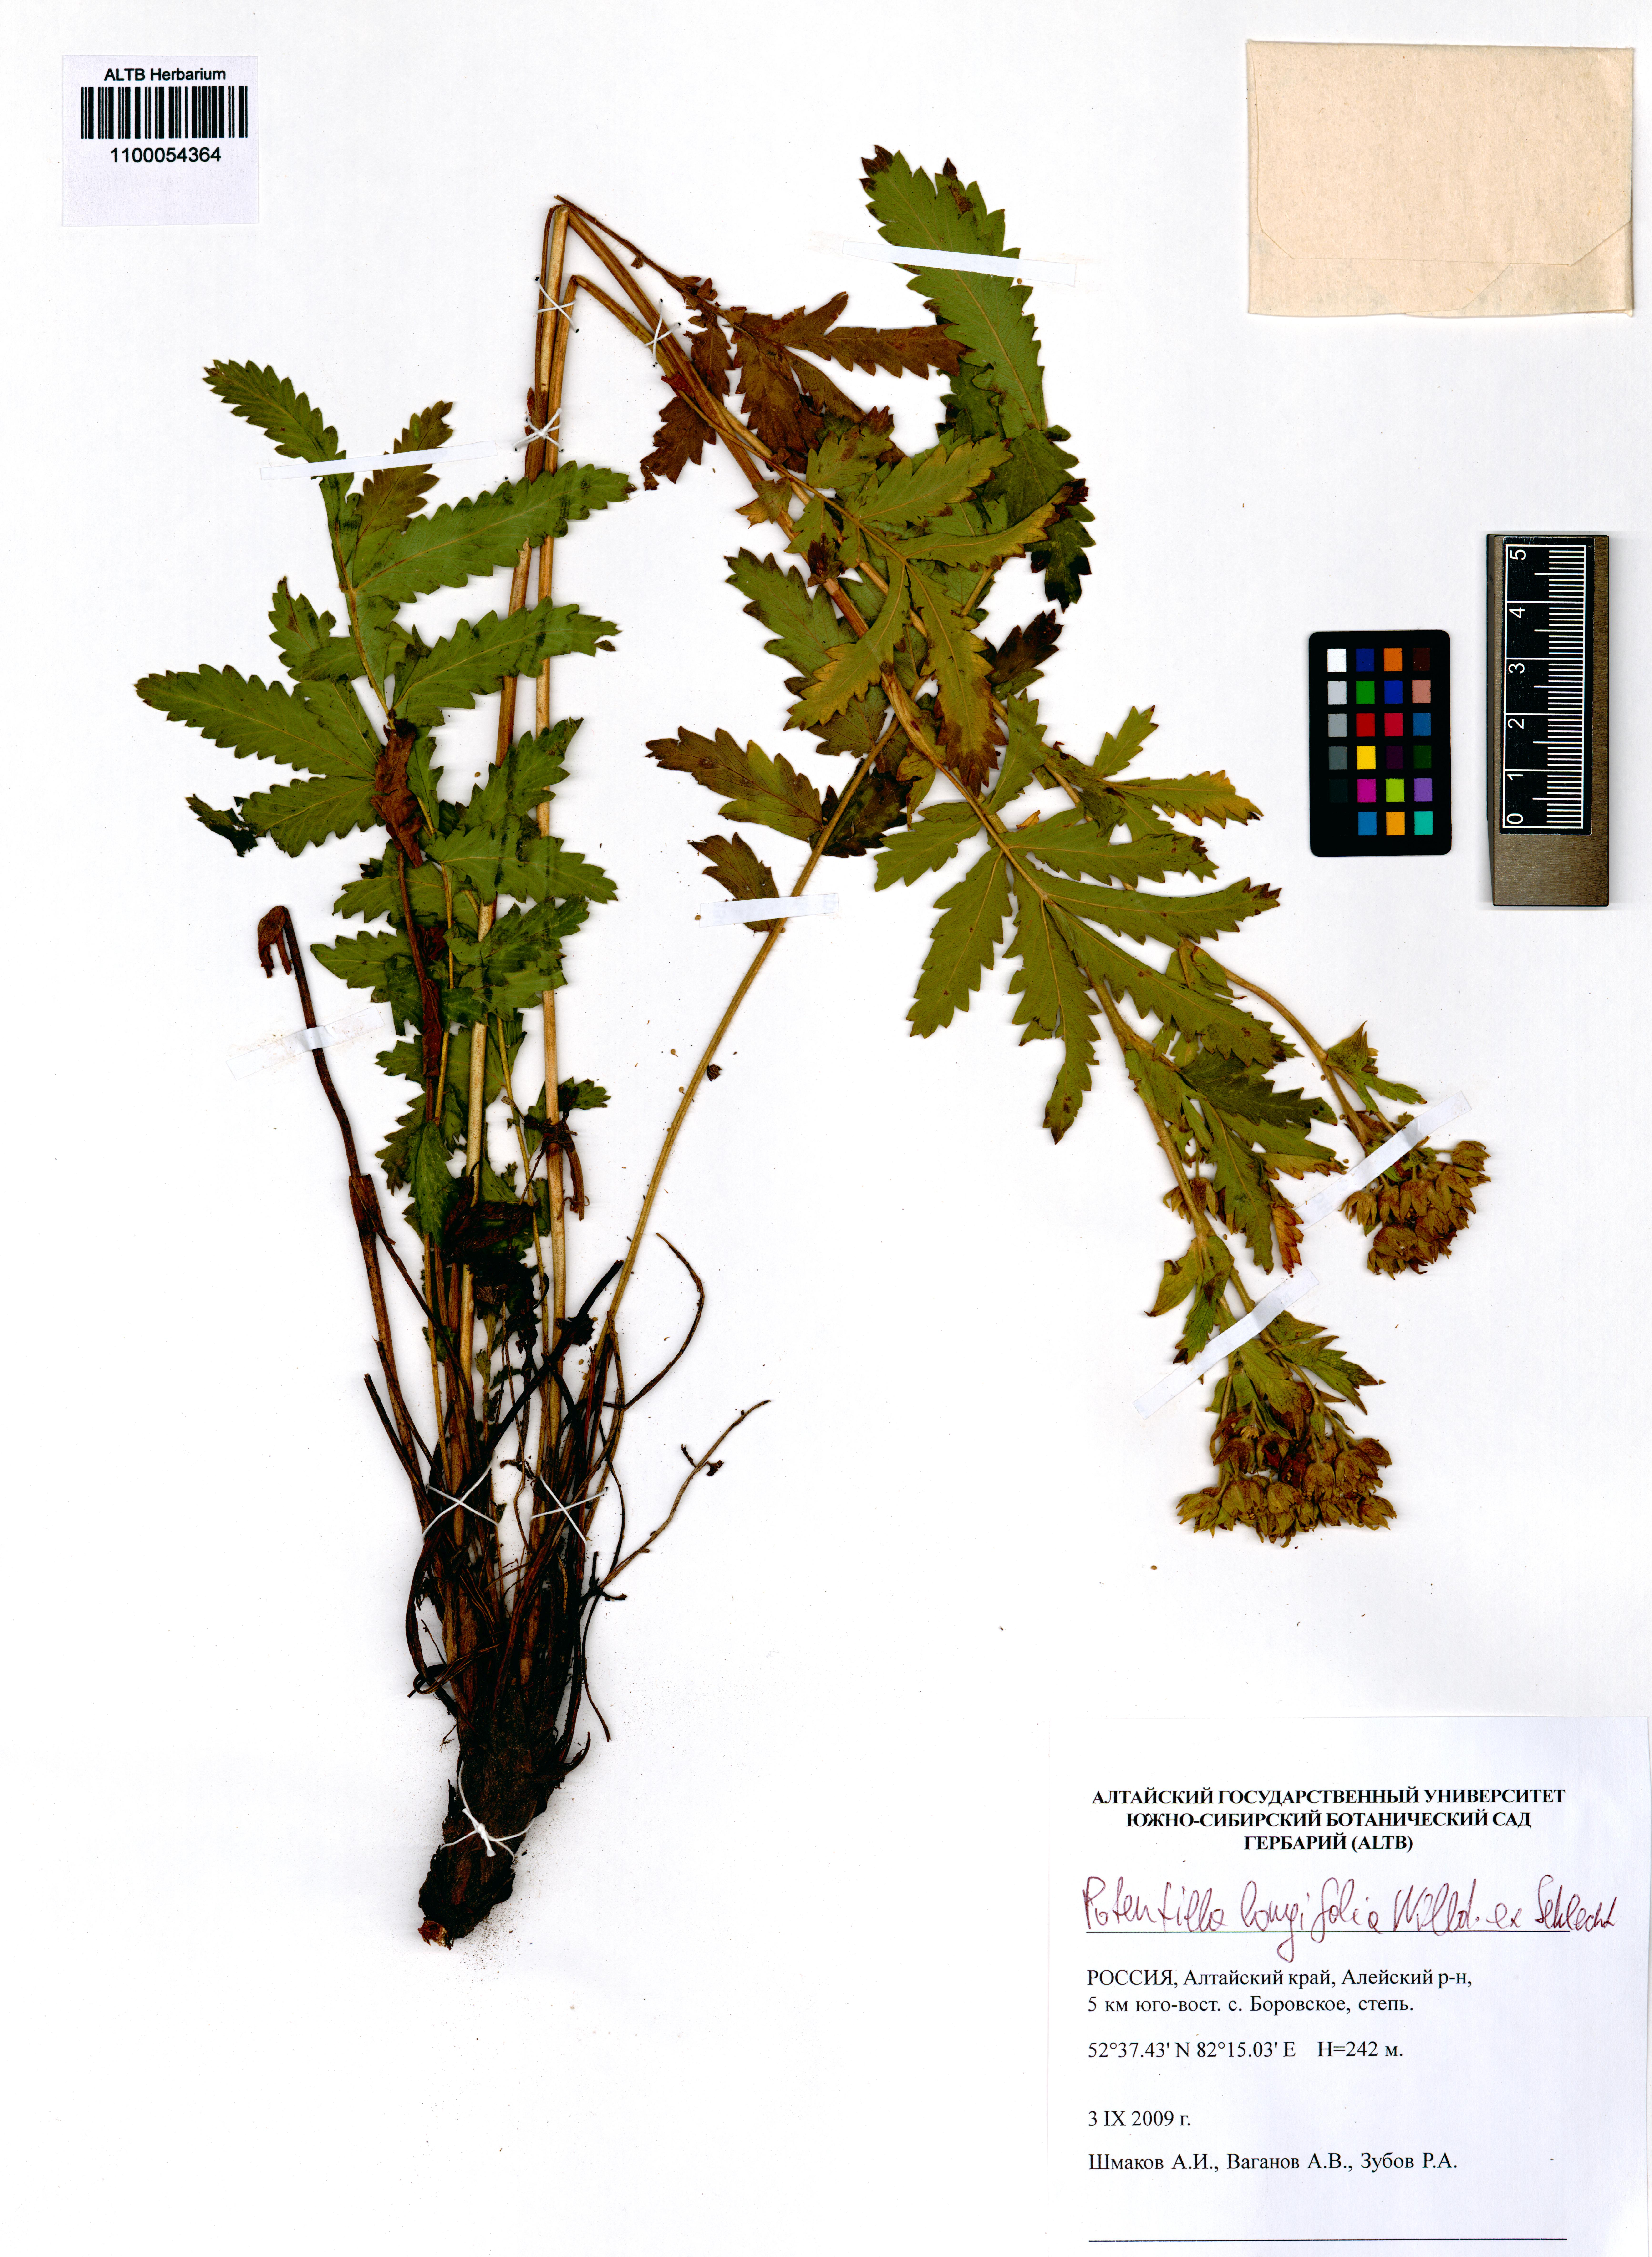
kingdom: Plantae
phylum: Tracheophyta
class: Magnoliopsida
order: Rosales
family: Rosaceae
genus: Potentilla
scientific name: Potentilla longifolia
